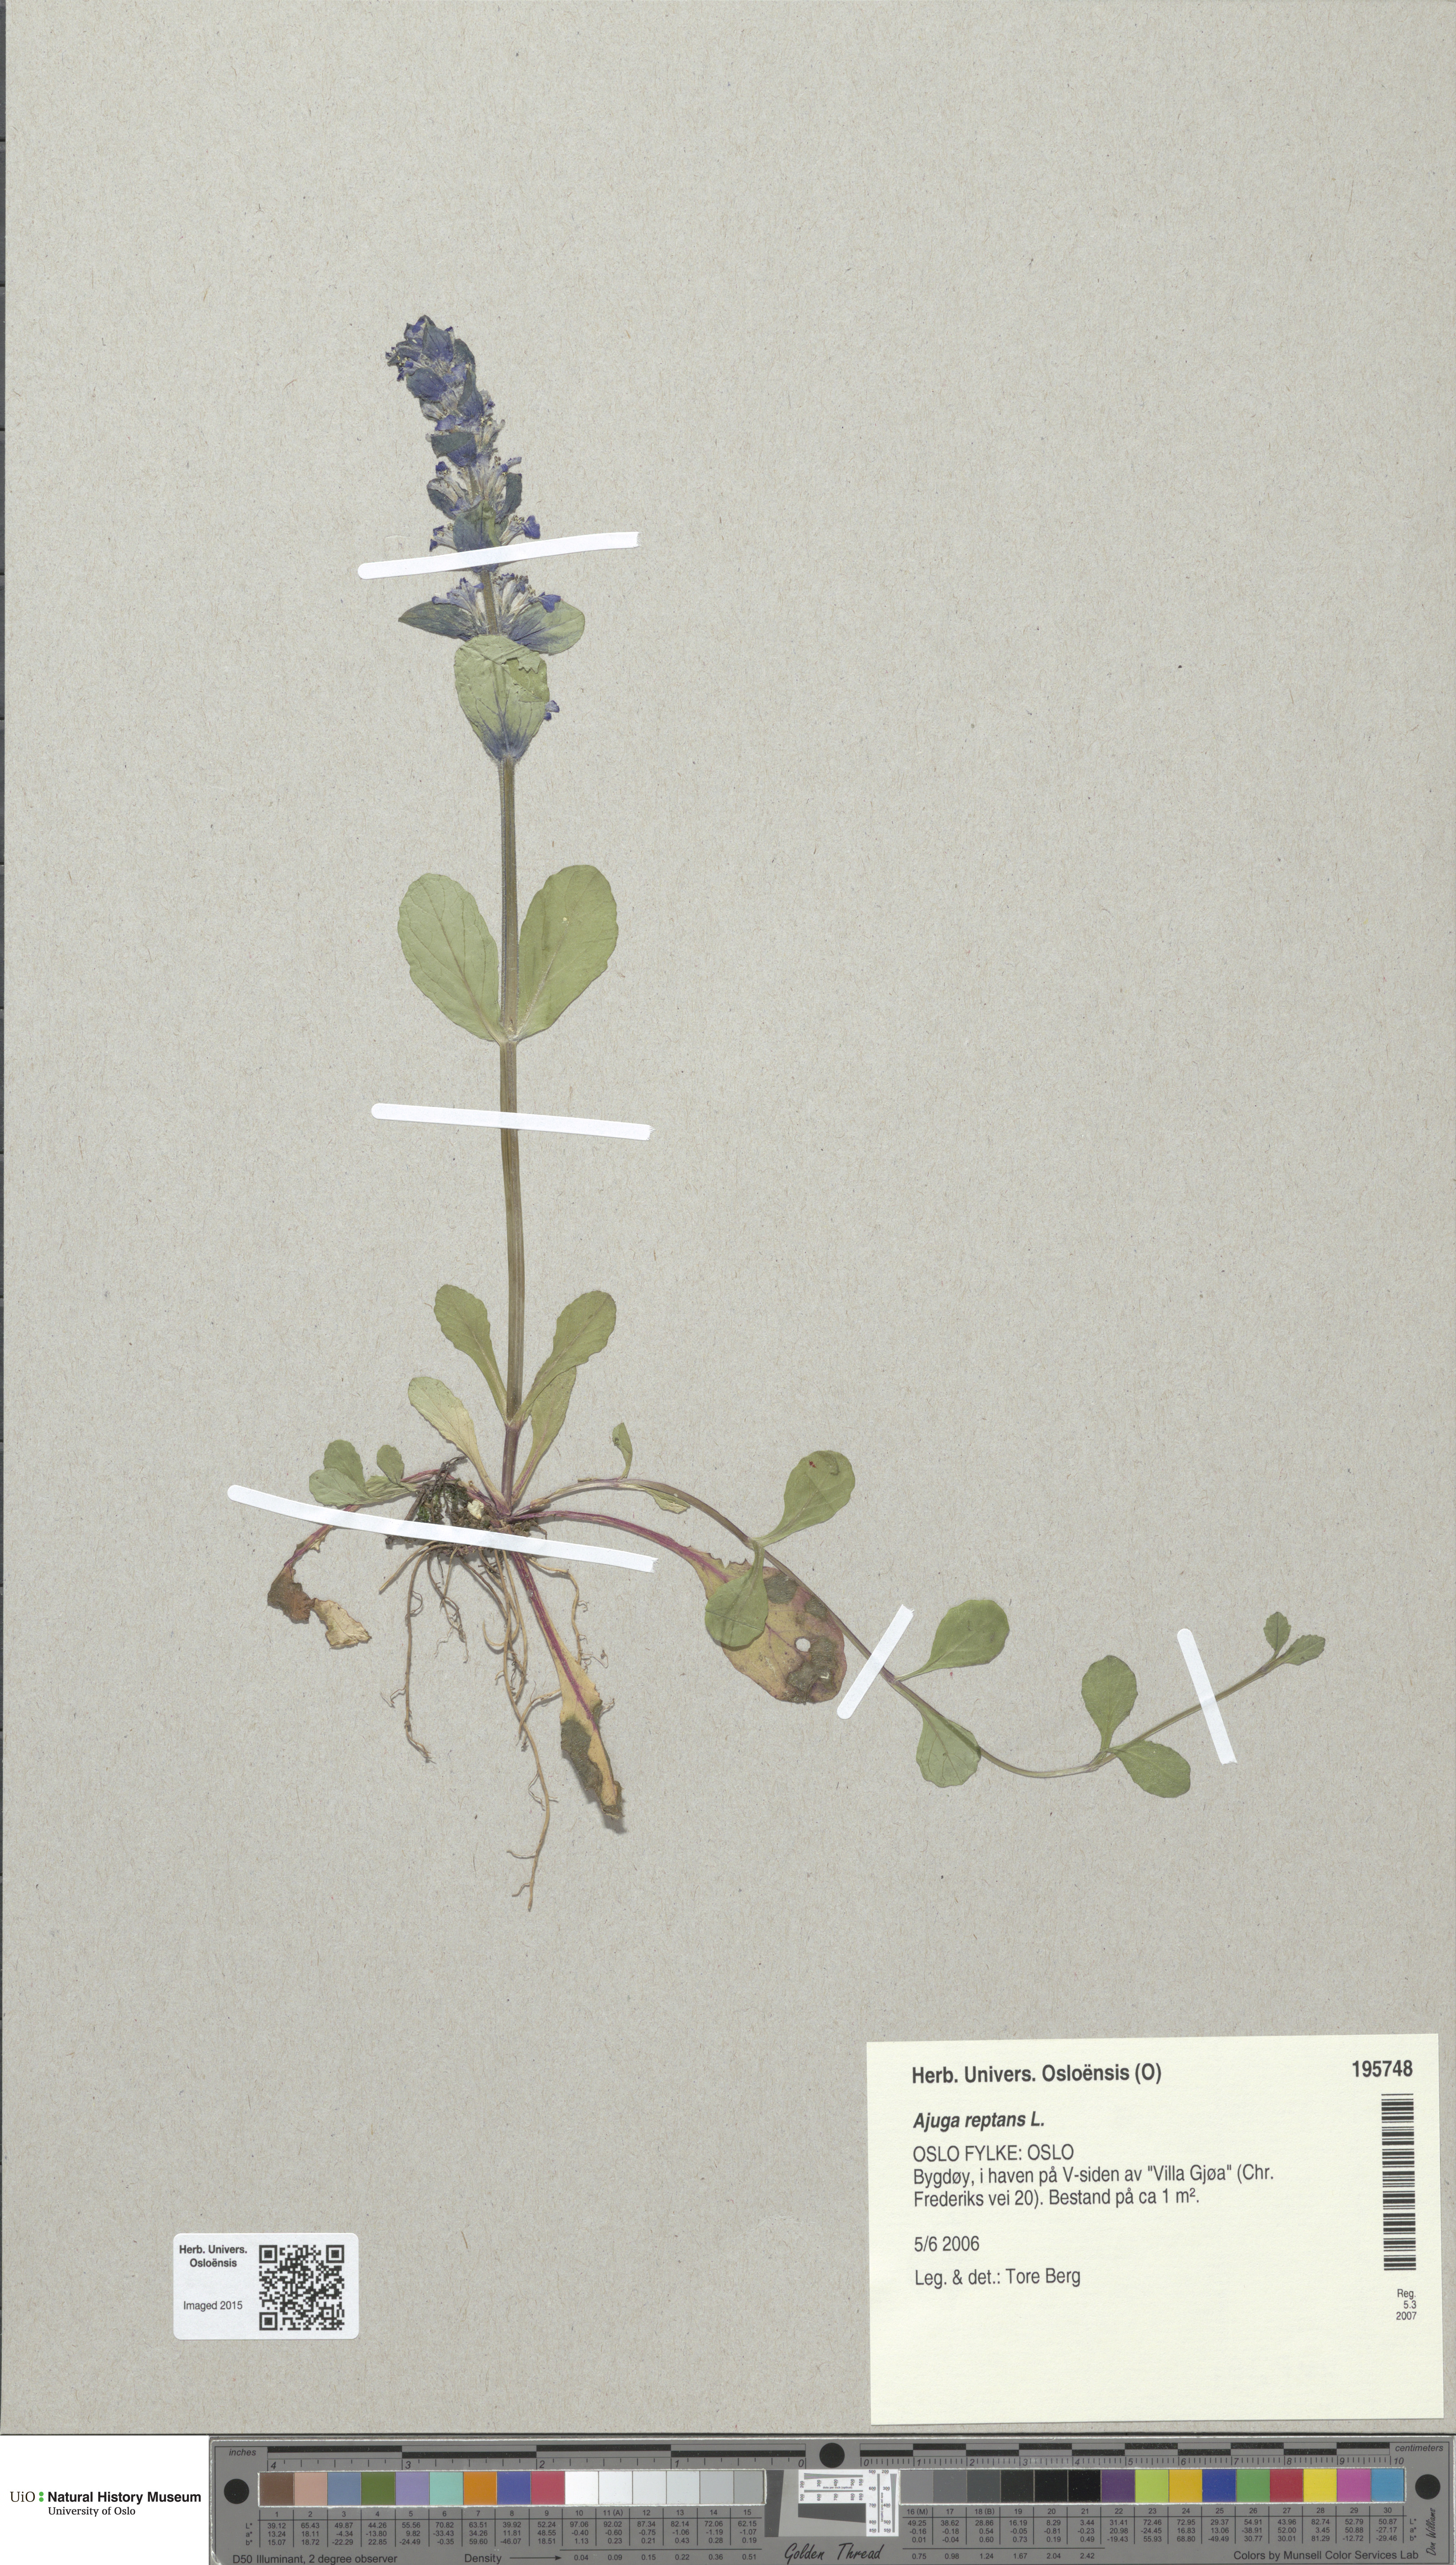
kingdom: Plantae
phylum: Tracheophyta
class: Magnoliopsida
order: Lamiales
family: Lamiaceae
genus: Ajuga
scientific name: Ajuga reptans
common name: Bugle
